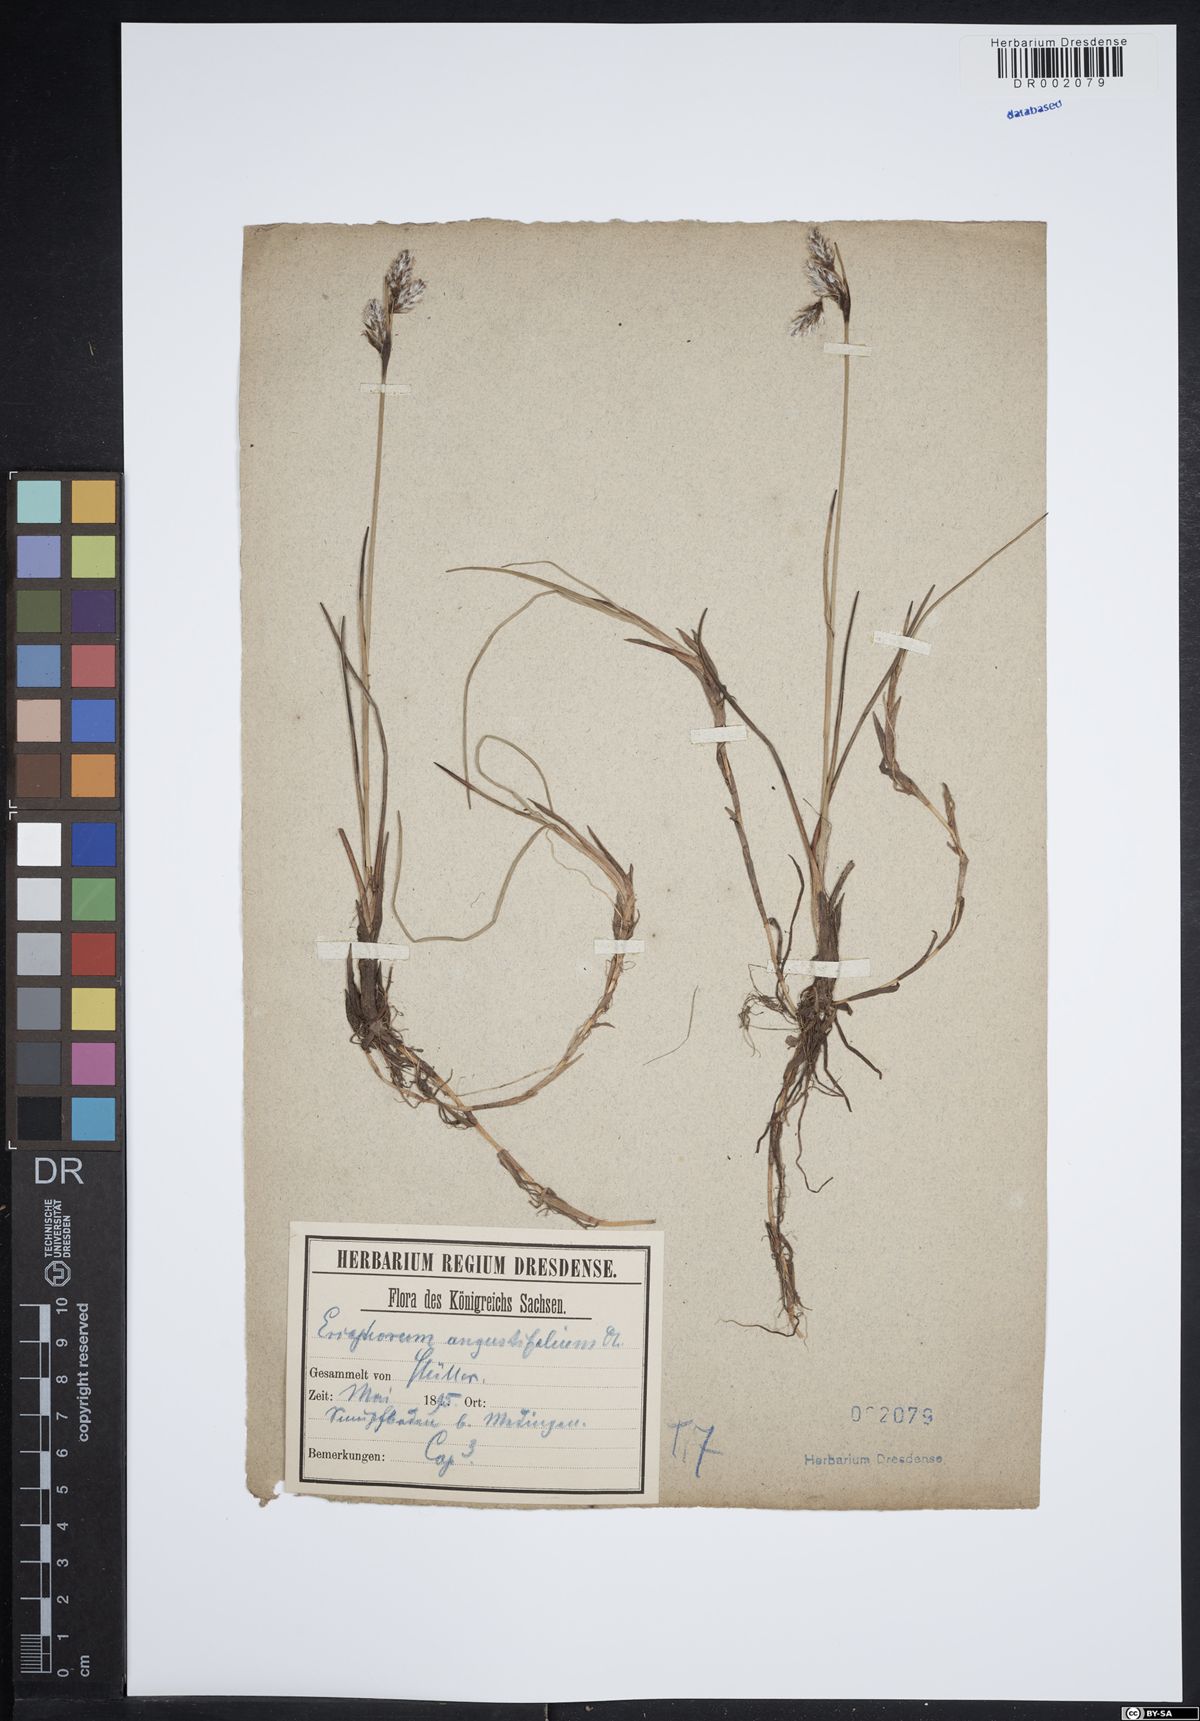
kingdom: Plantae
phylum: Tracheophyta
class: Liliopsida
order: Poales
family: Cyperaceae
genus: Eriophorum
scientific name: Eriophorum angustifolium
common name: Common cottongrass
